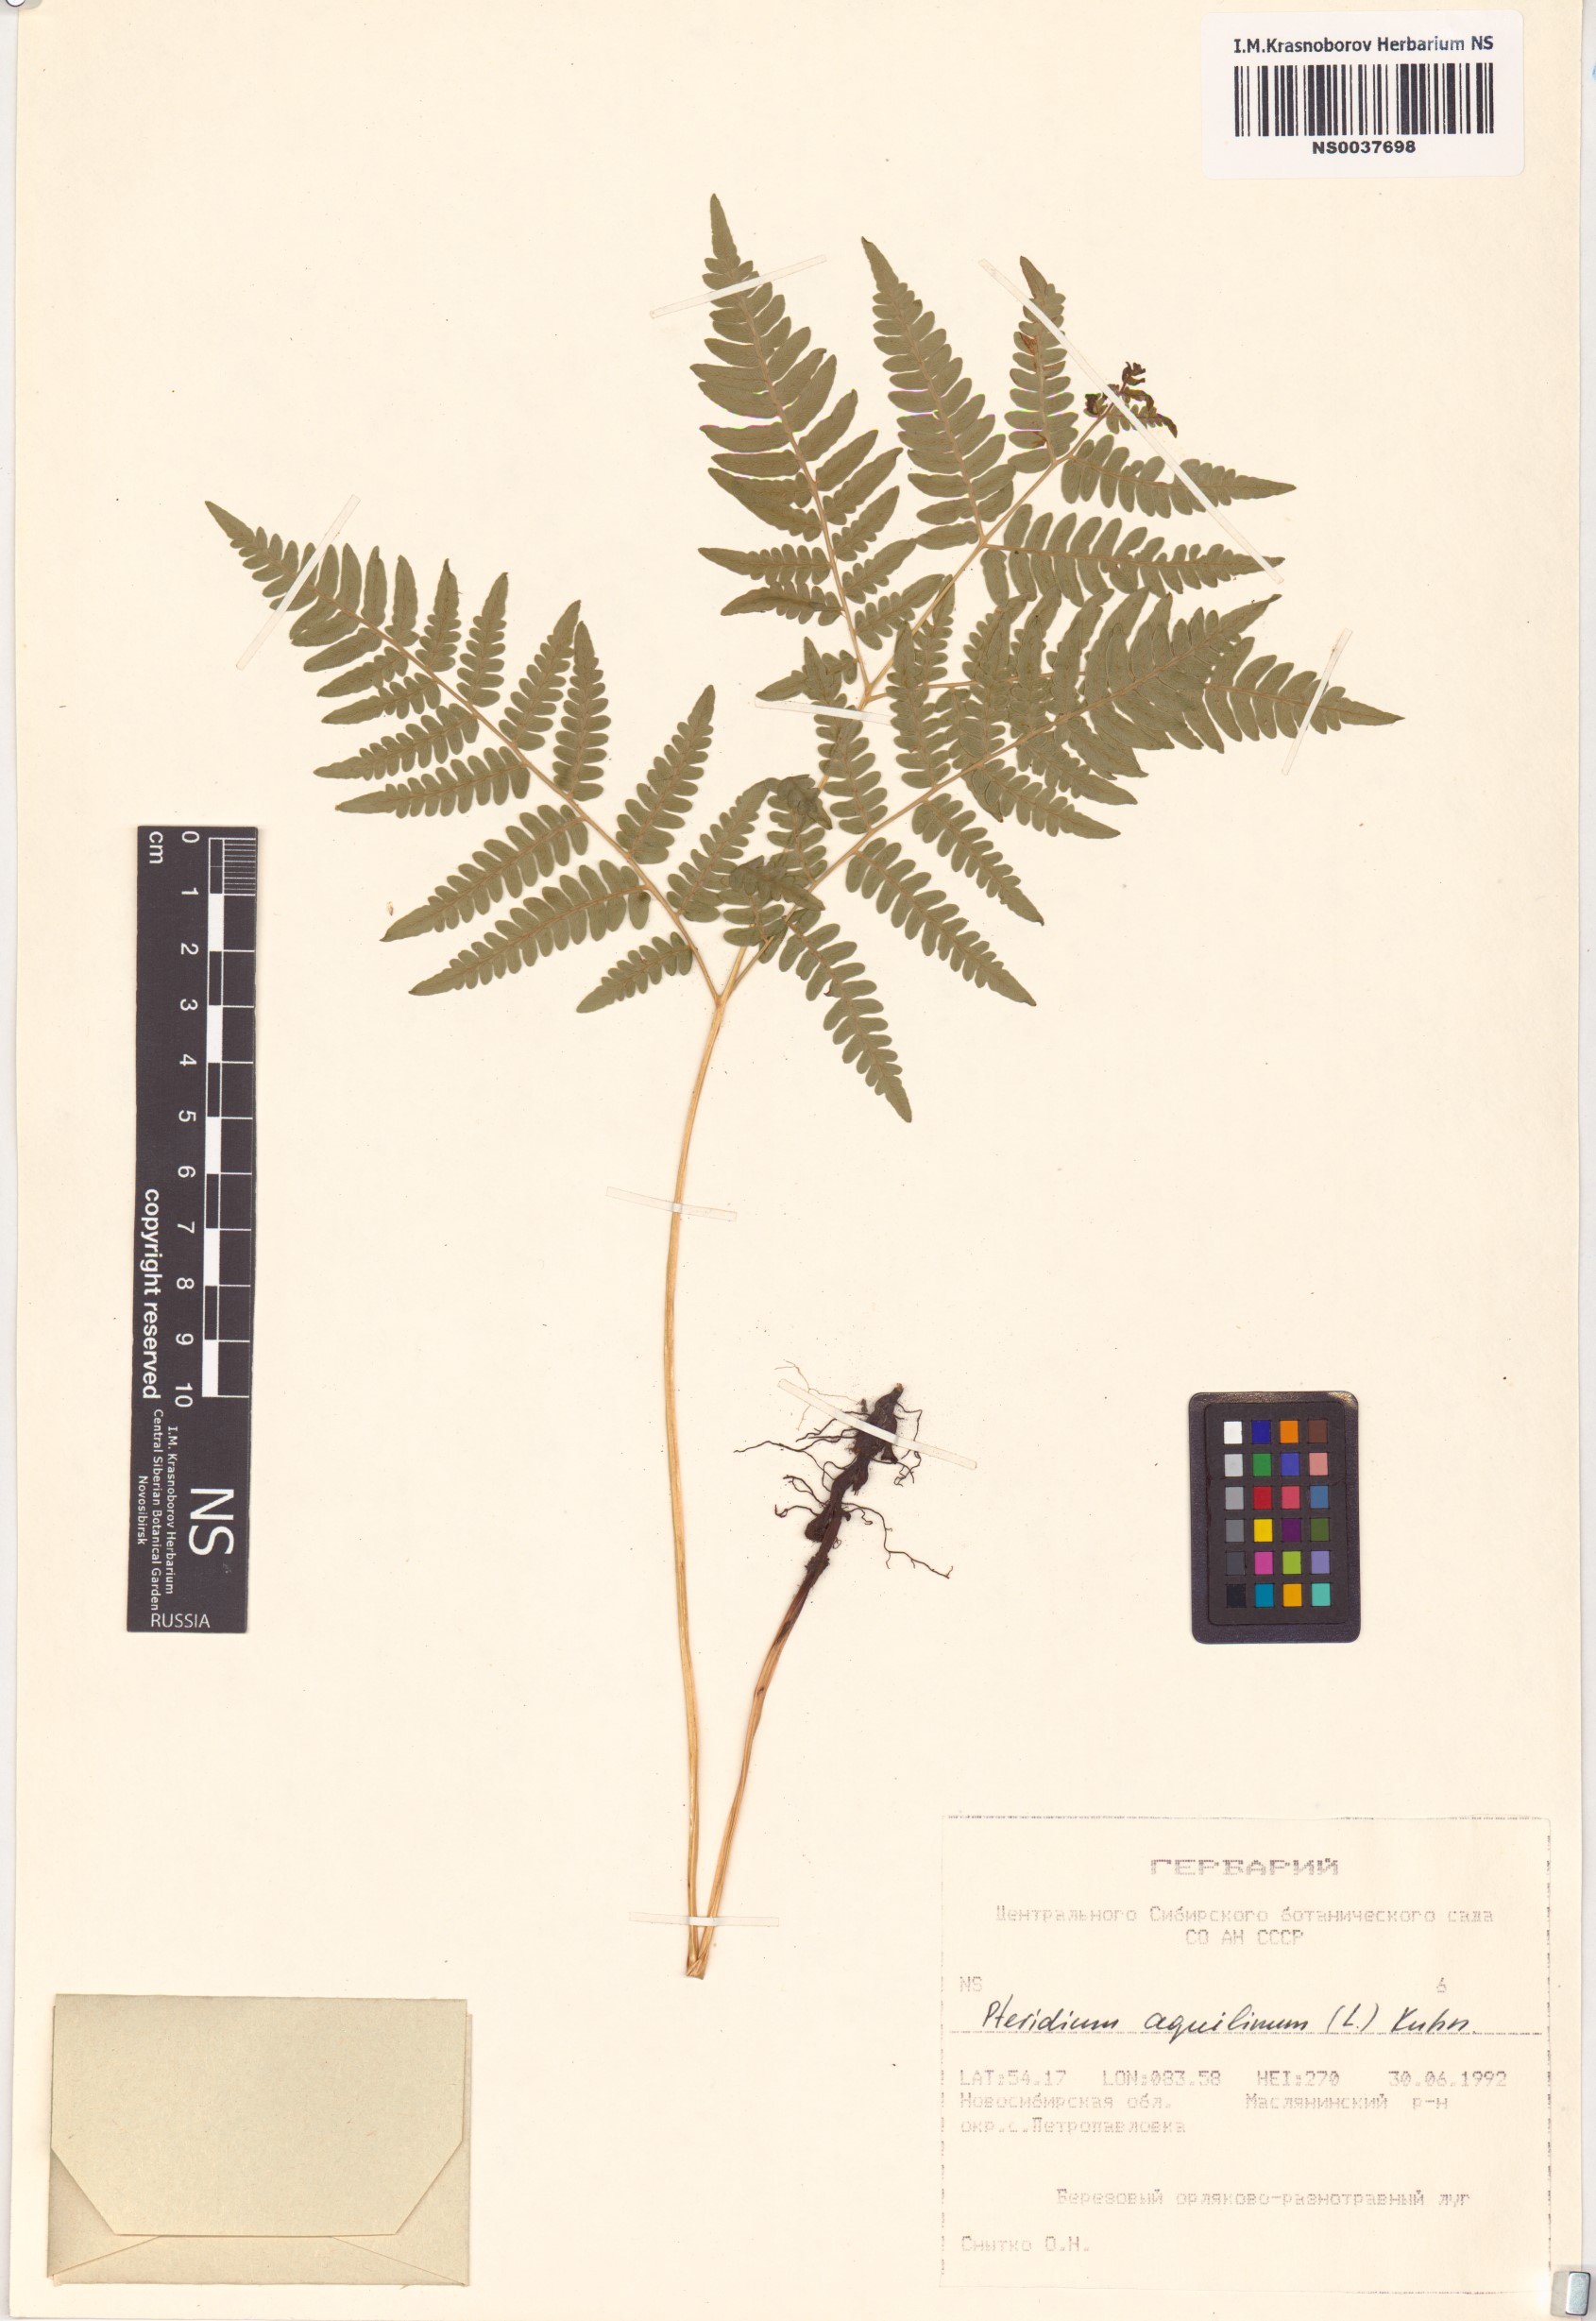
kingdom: Plantae
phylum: Tracheophyta
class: Polypodiopsida
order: Polypodiales
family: Dennstaedtiaceae
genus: Pteridium
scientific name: Pteridium aquilinum
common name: Bracken
